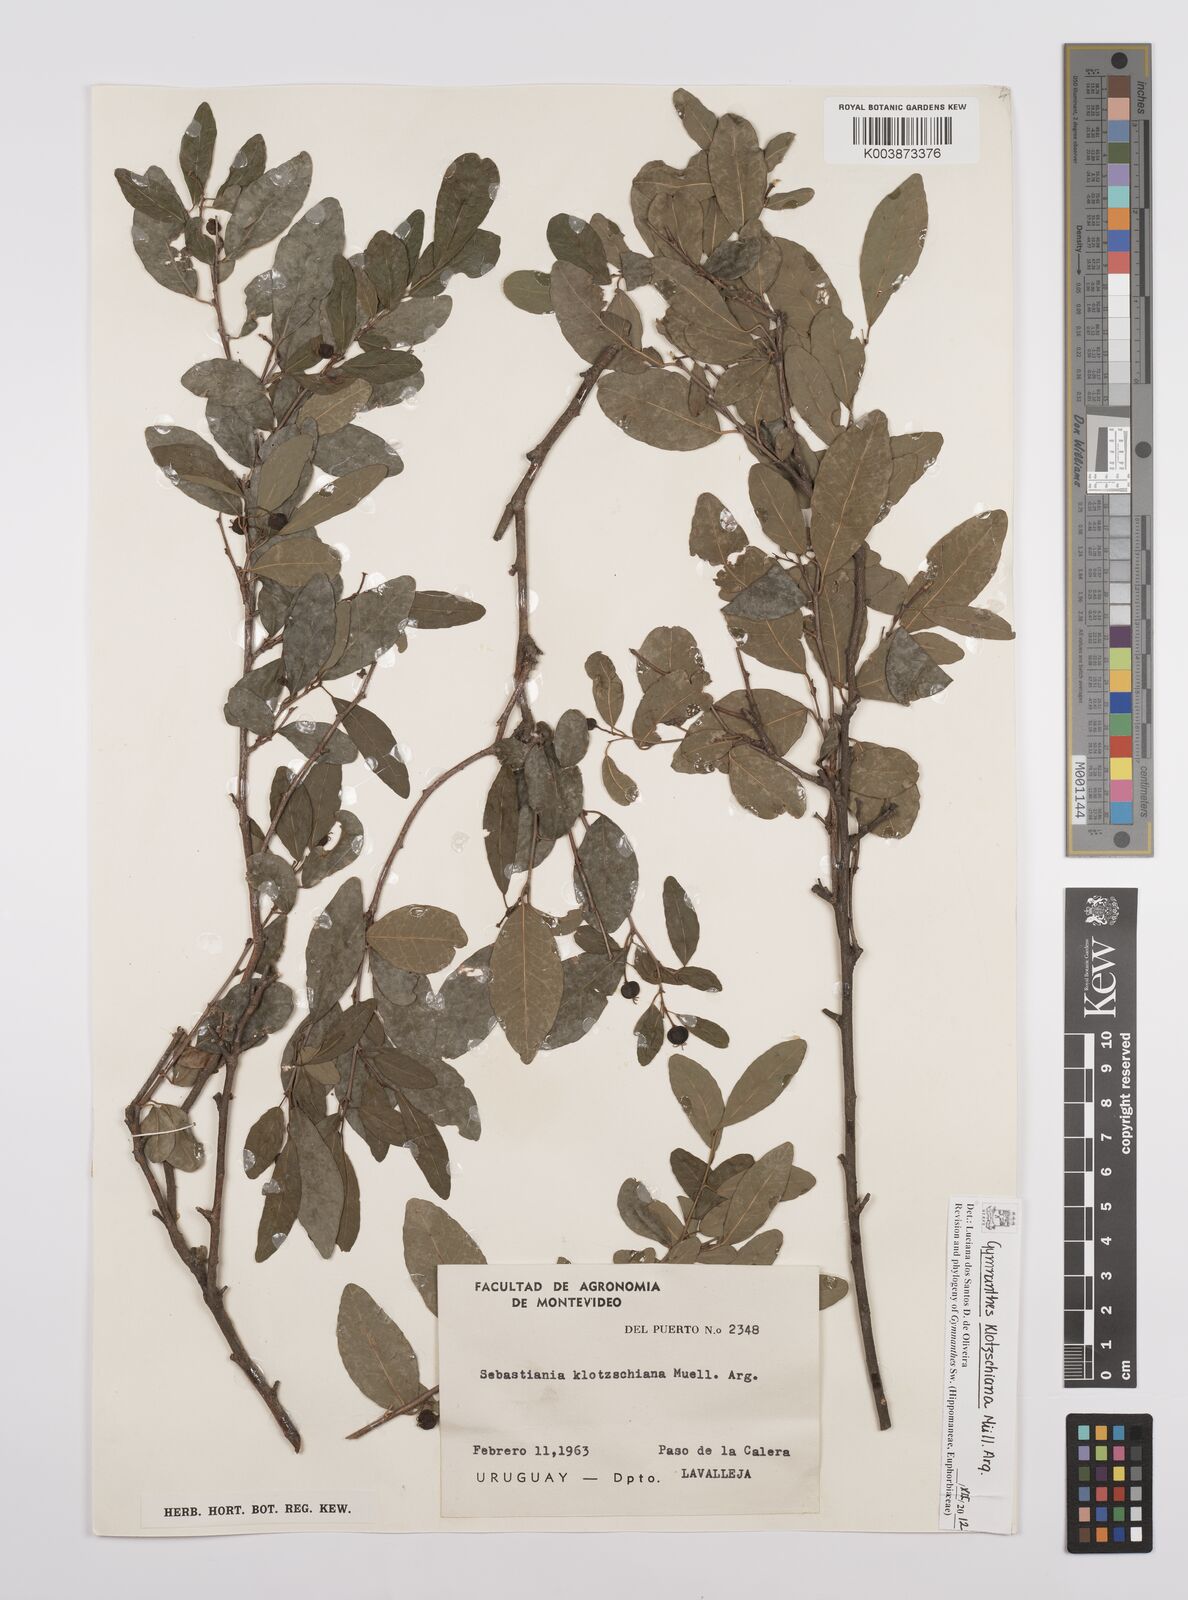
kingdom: Plantae
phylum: Tracheophyta
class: Magnoliopsida
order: Malpighiales
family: Euphorbiaceae
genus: Sebastiania
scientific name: Sebastiania klotzschiana
